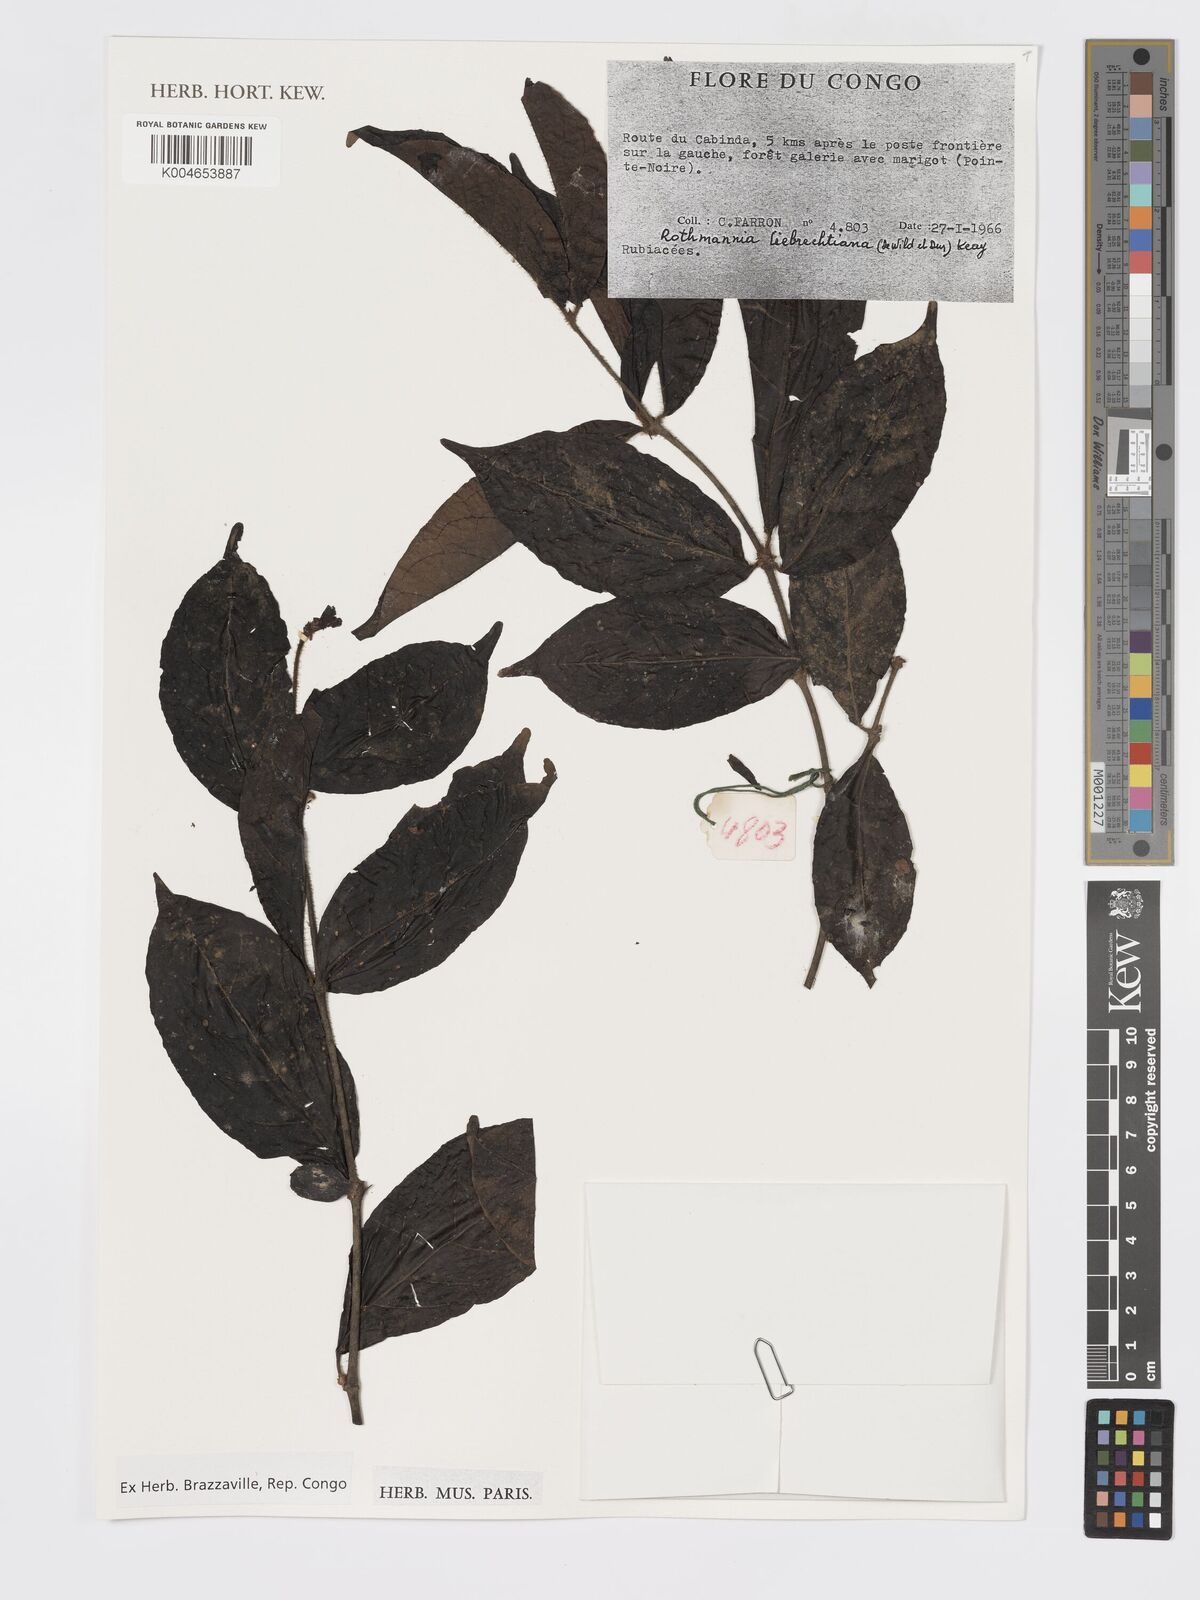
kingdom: Plantae
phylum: Tracheophyta
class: Magnoliopsida
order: Gentianales
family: Rubiaceae
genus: Rothmannia
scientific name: Rothmannia liebrechtsiana
